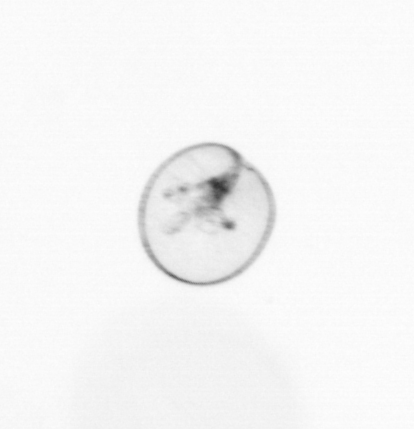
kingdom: Chromista
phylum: Myzozoa
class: Dinophyceae
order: Noctilucales
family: Noctilucaceae
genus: Noctiluca
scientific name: Noctiluca scintillans
